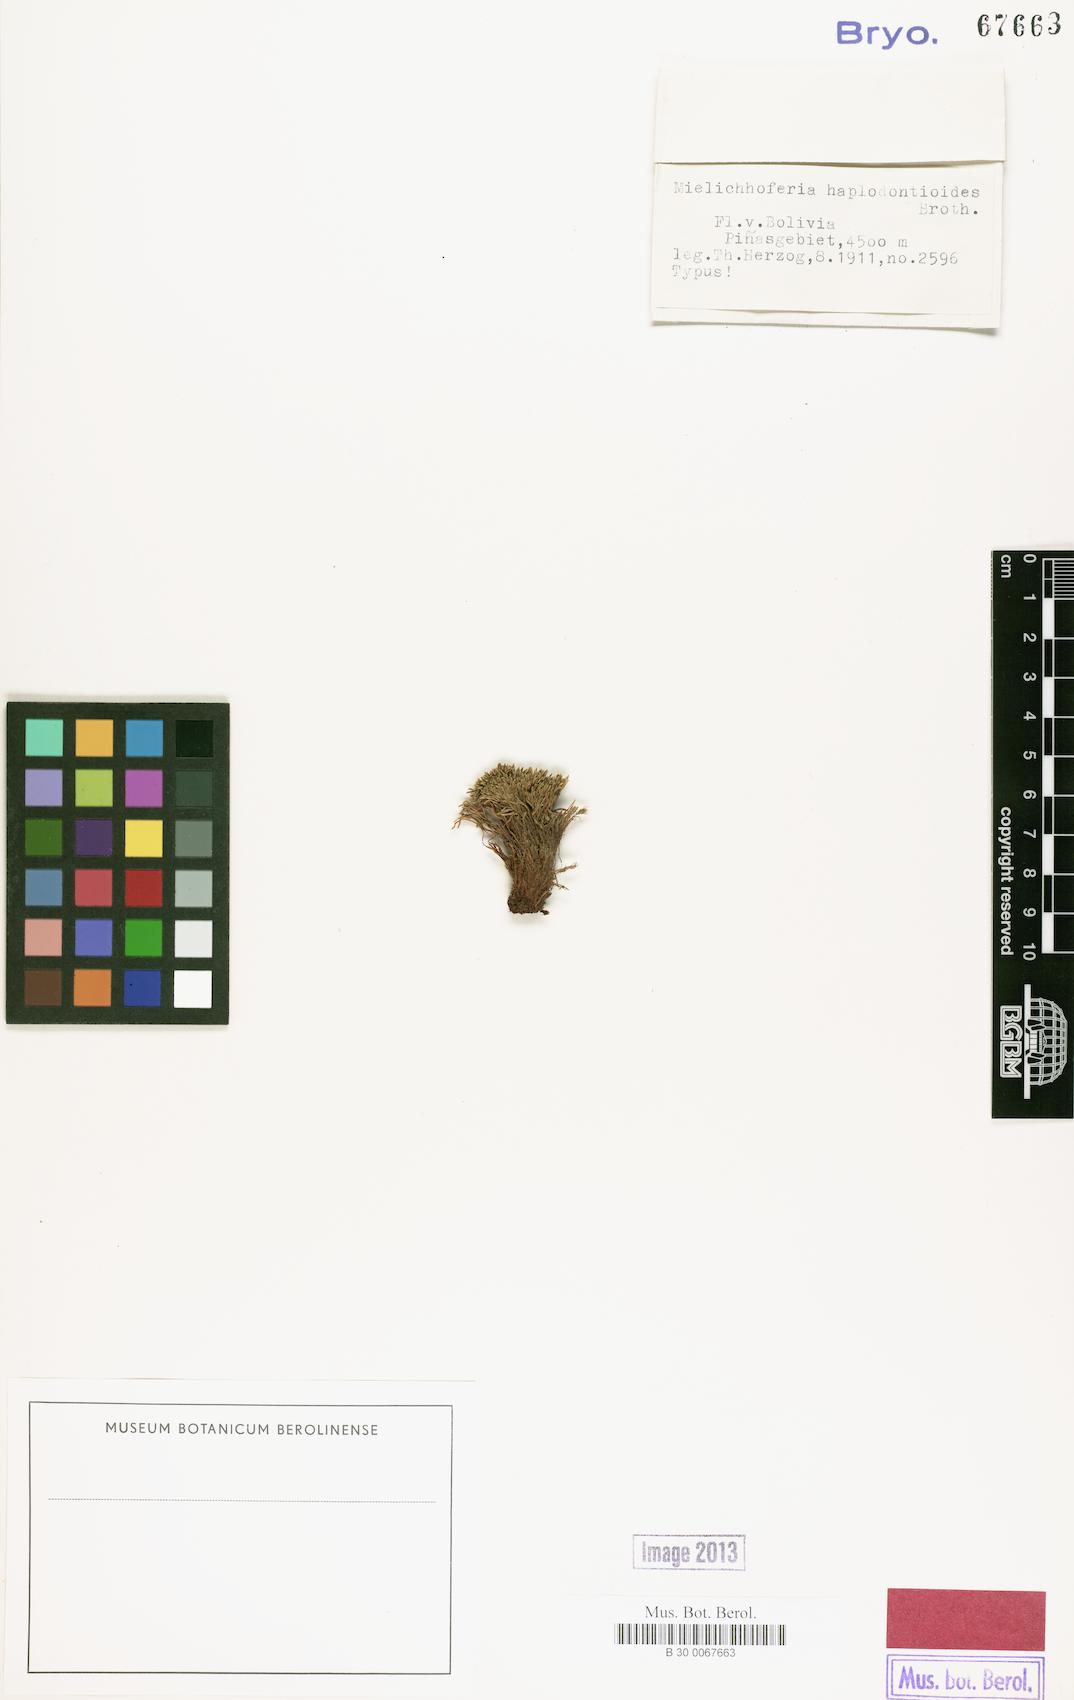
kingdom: Plantae
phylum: Bryophyta
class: Bryopsida
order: Bryales
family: Mniaceae
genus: Mielichhoferia
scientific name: Mielichhoferia
